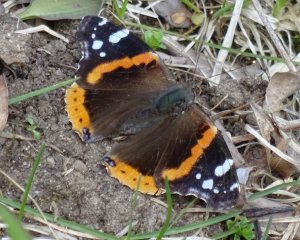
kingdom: Animalia
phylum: Arthropoda
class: Insecta
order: Lepidoptera
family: Nymphalidae
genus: Vanessa
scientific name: Vanessa atalanta
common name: Red Admiral
